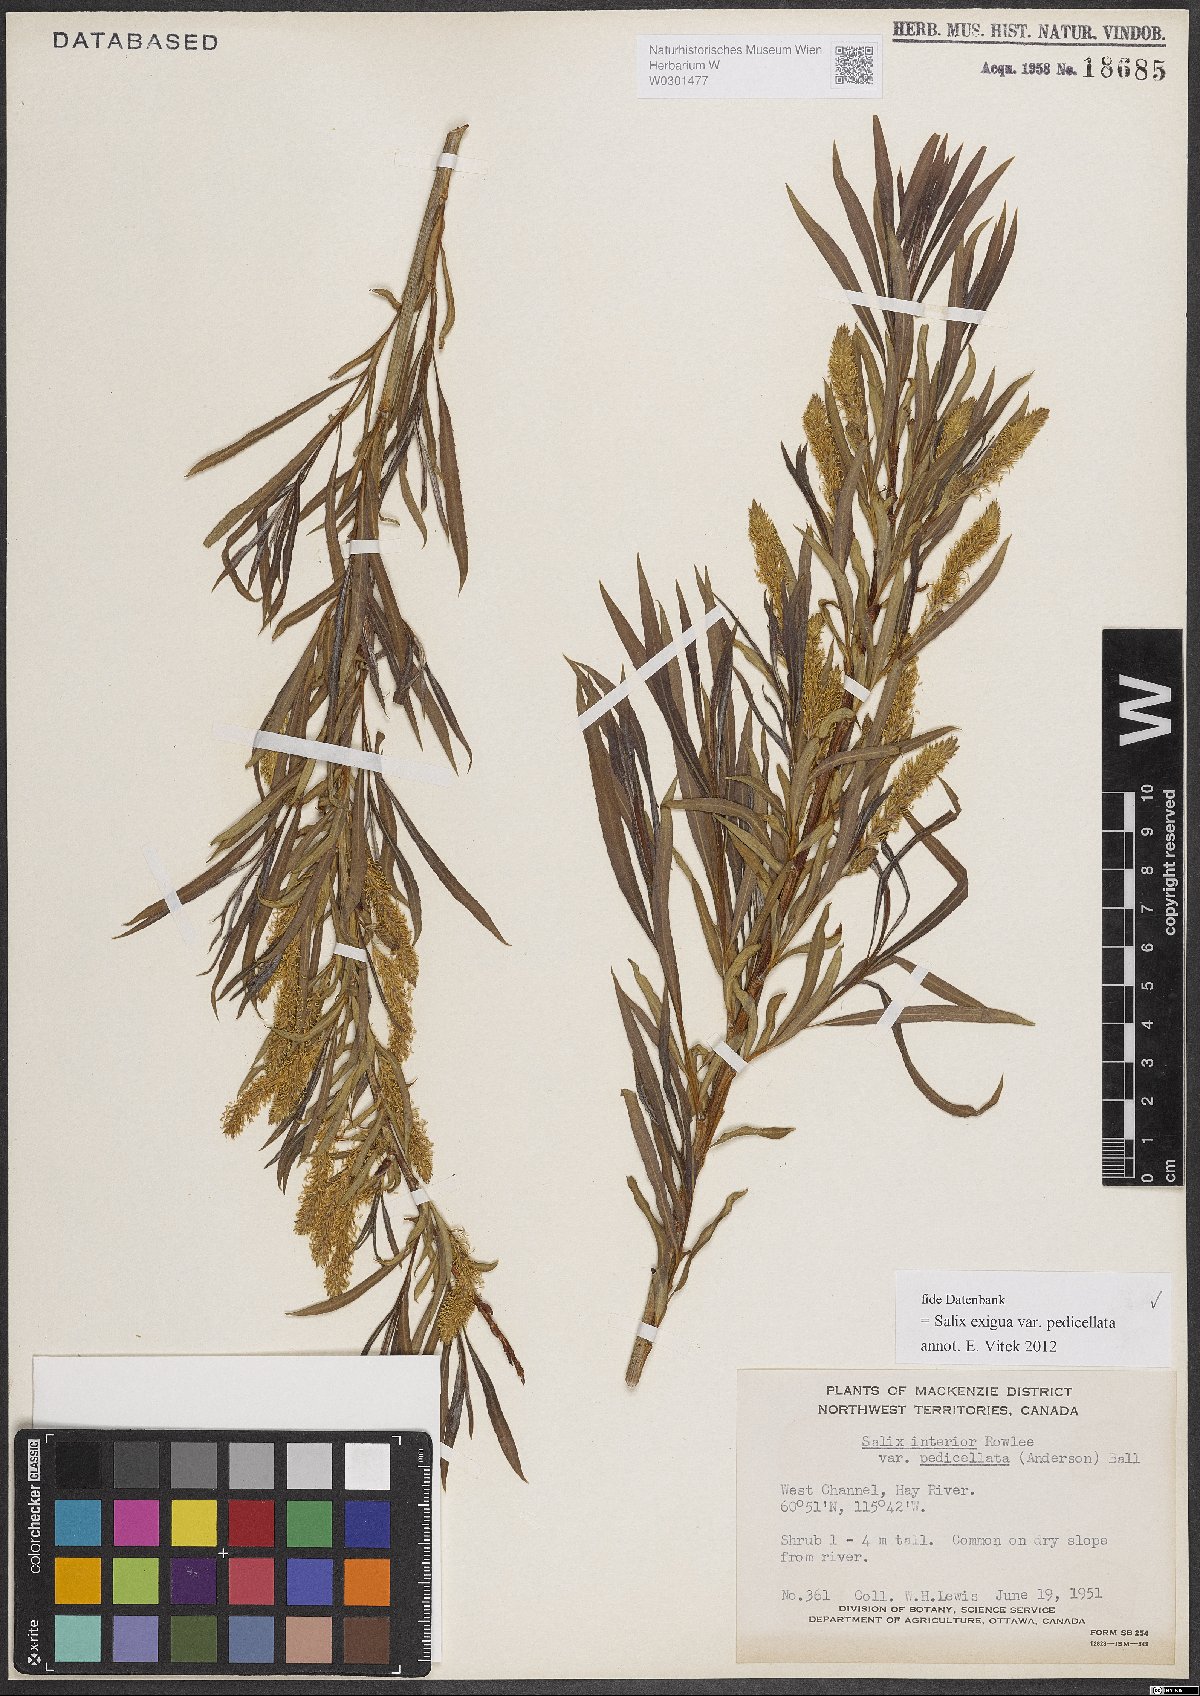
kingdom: Plantae
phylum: Tracheophyta
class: Magnoliopsida
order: Malpighiales
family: Salicaceae
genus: Salix
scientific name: Salix interior
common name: Sandbar willow
